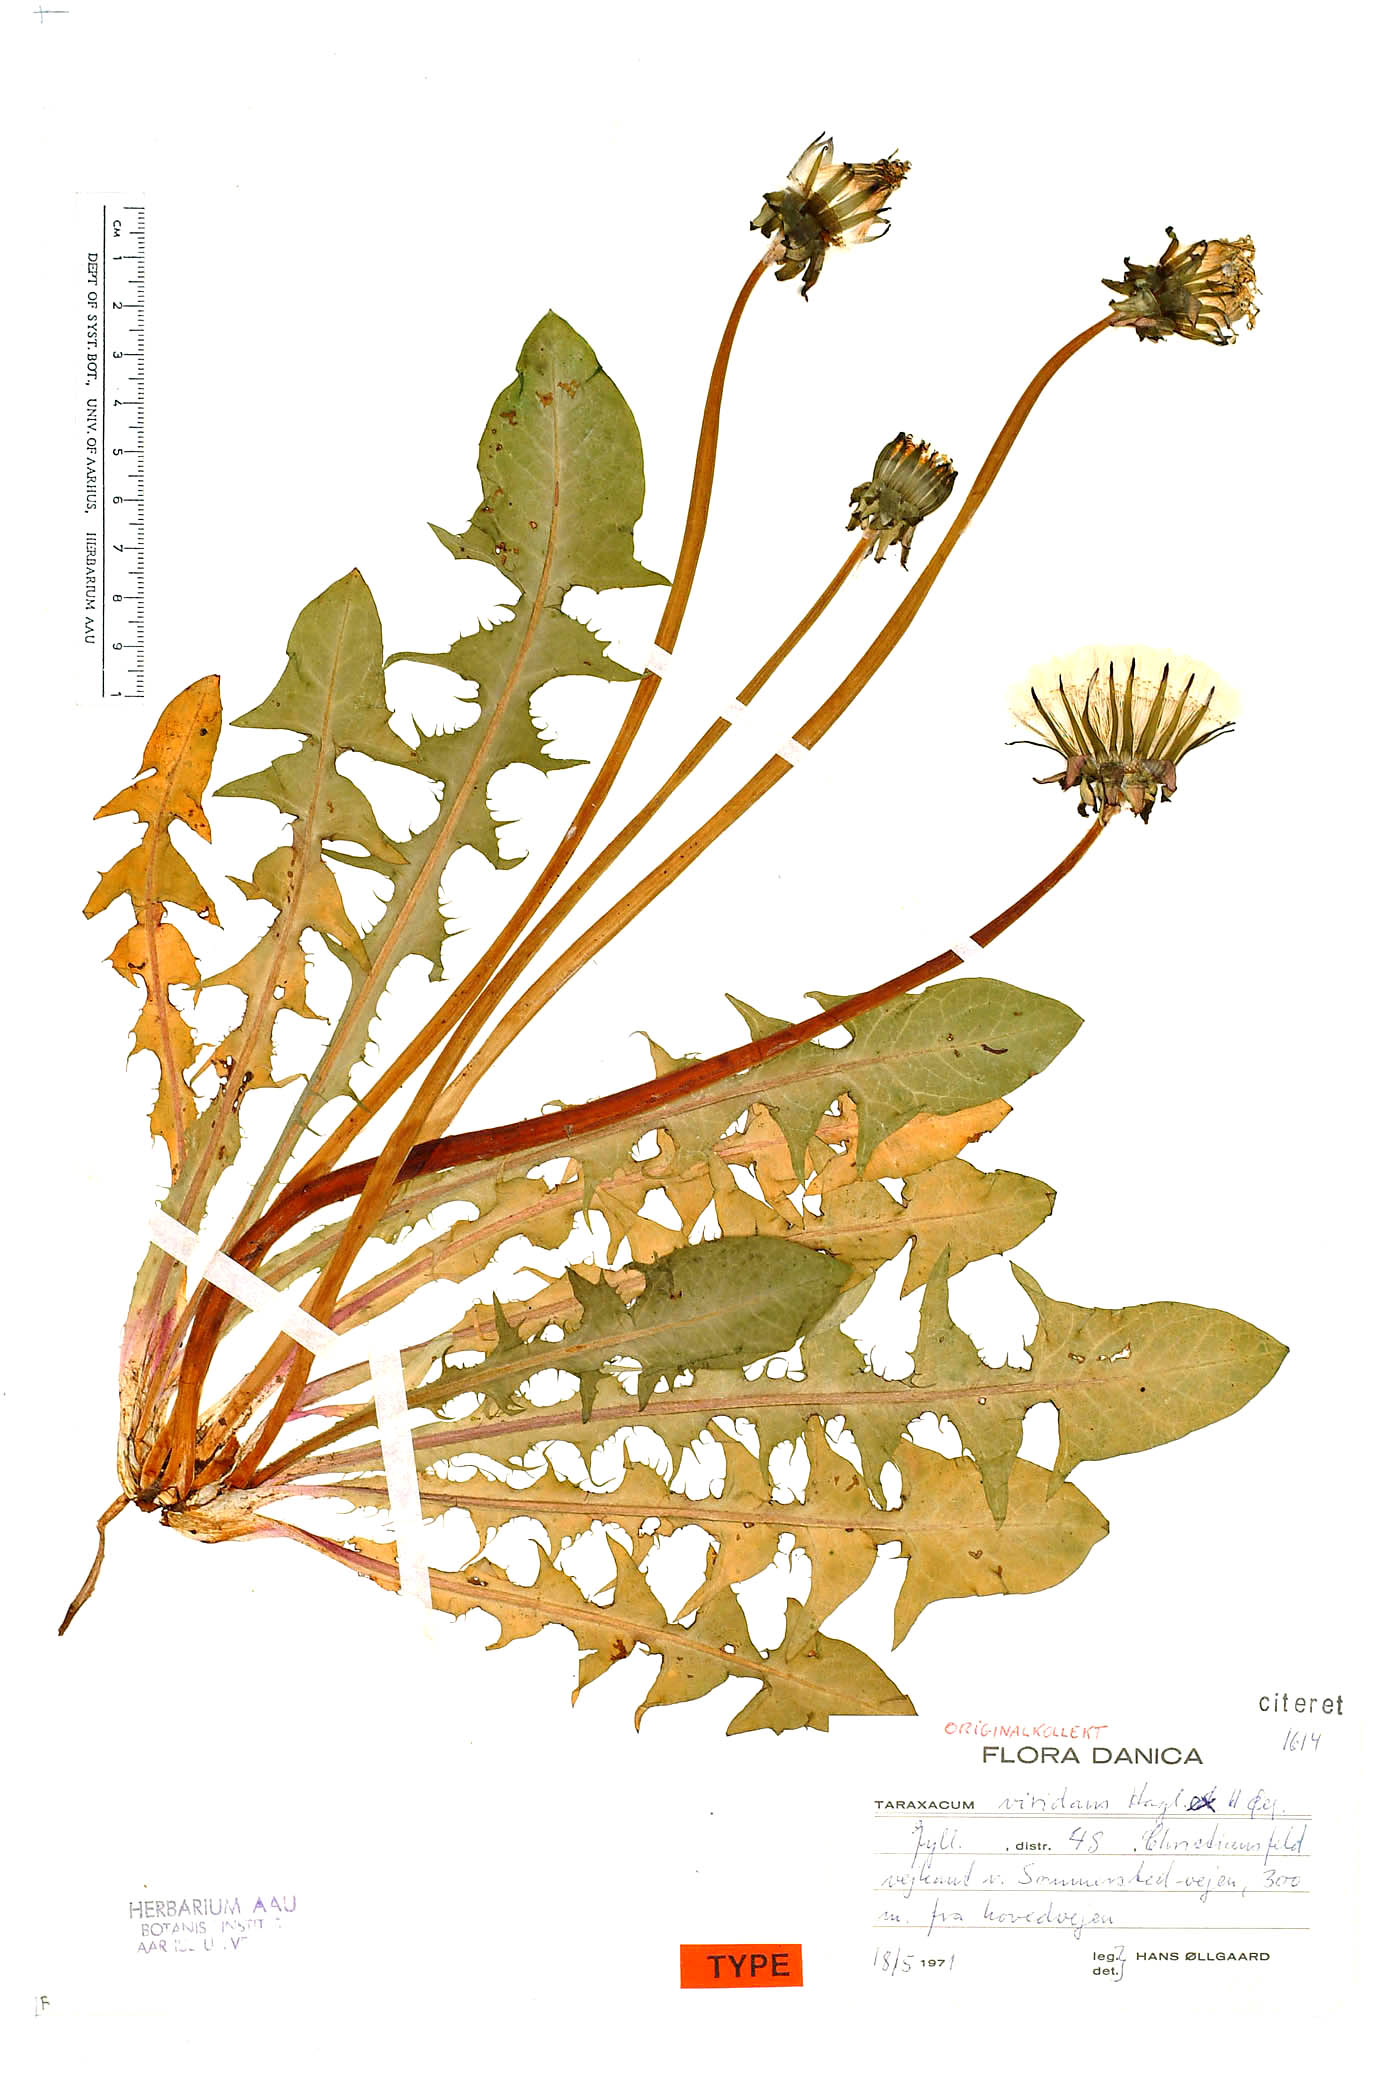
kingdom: Plantae
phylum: Tracheophyta
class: Magnoliopsida
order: Asterales
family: Asteraceae
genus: Taraxacum
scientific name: Taraxacum viridans
